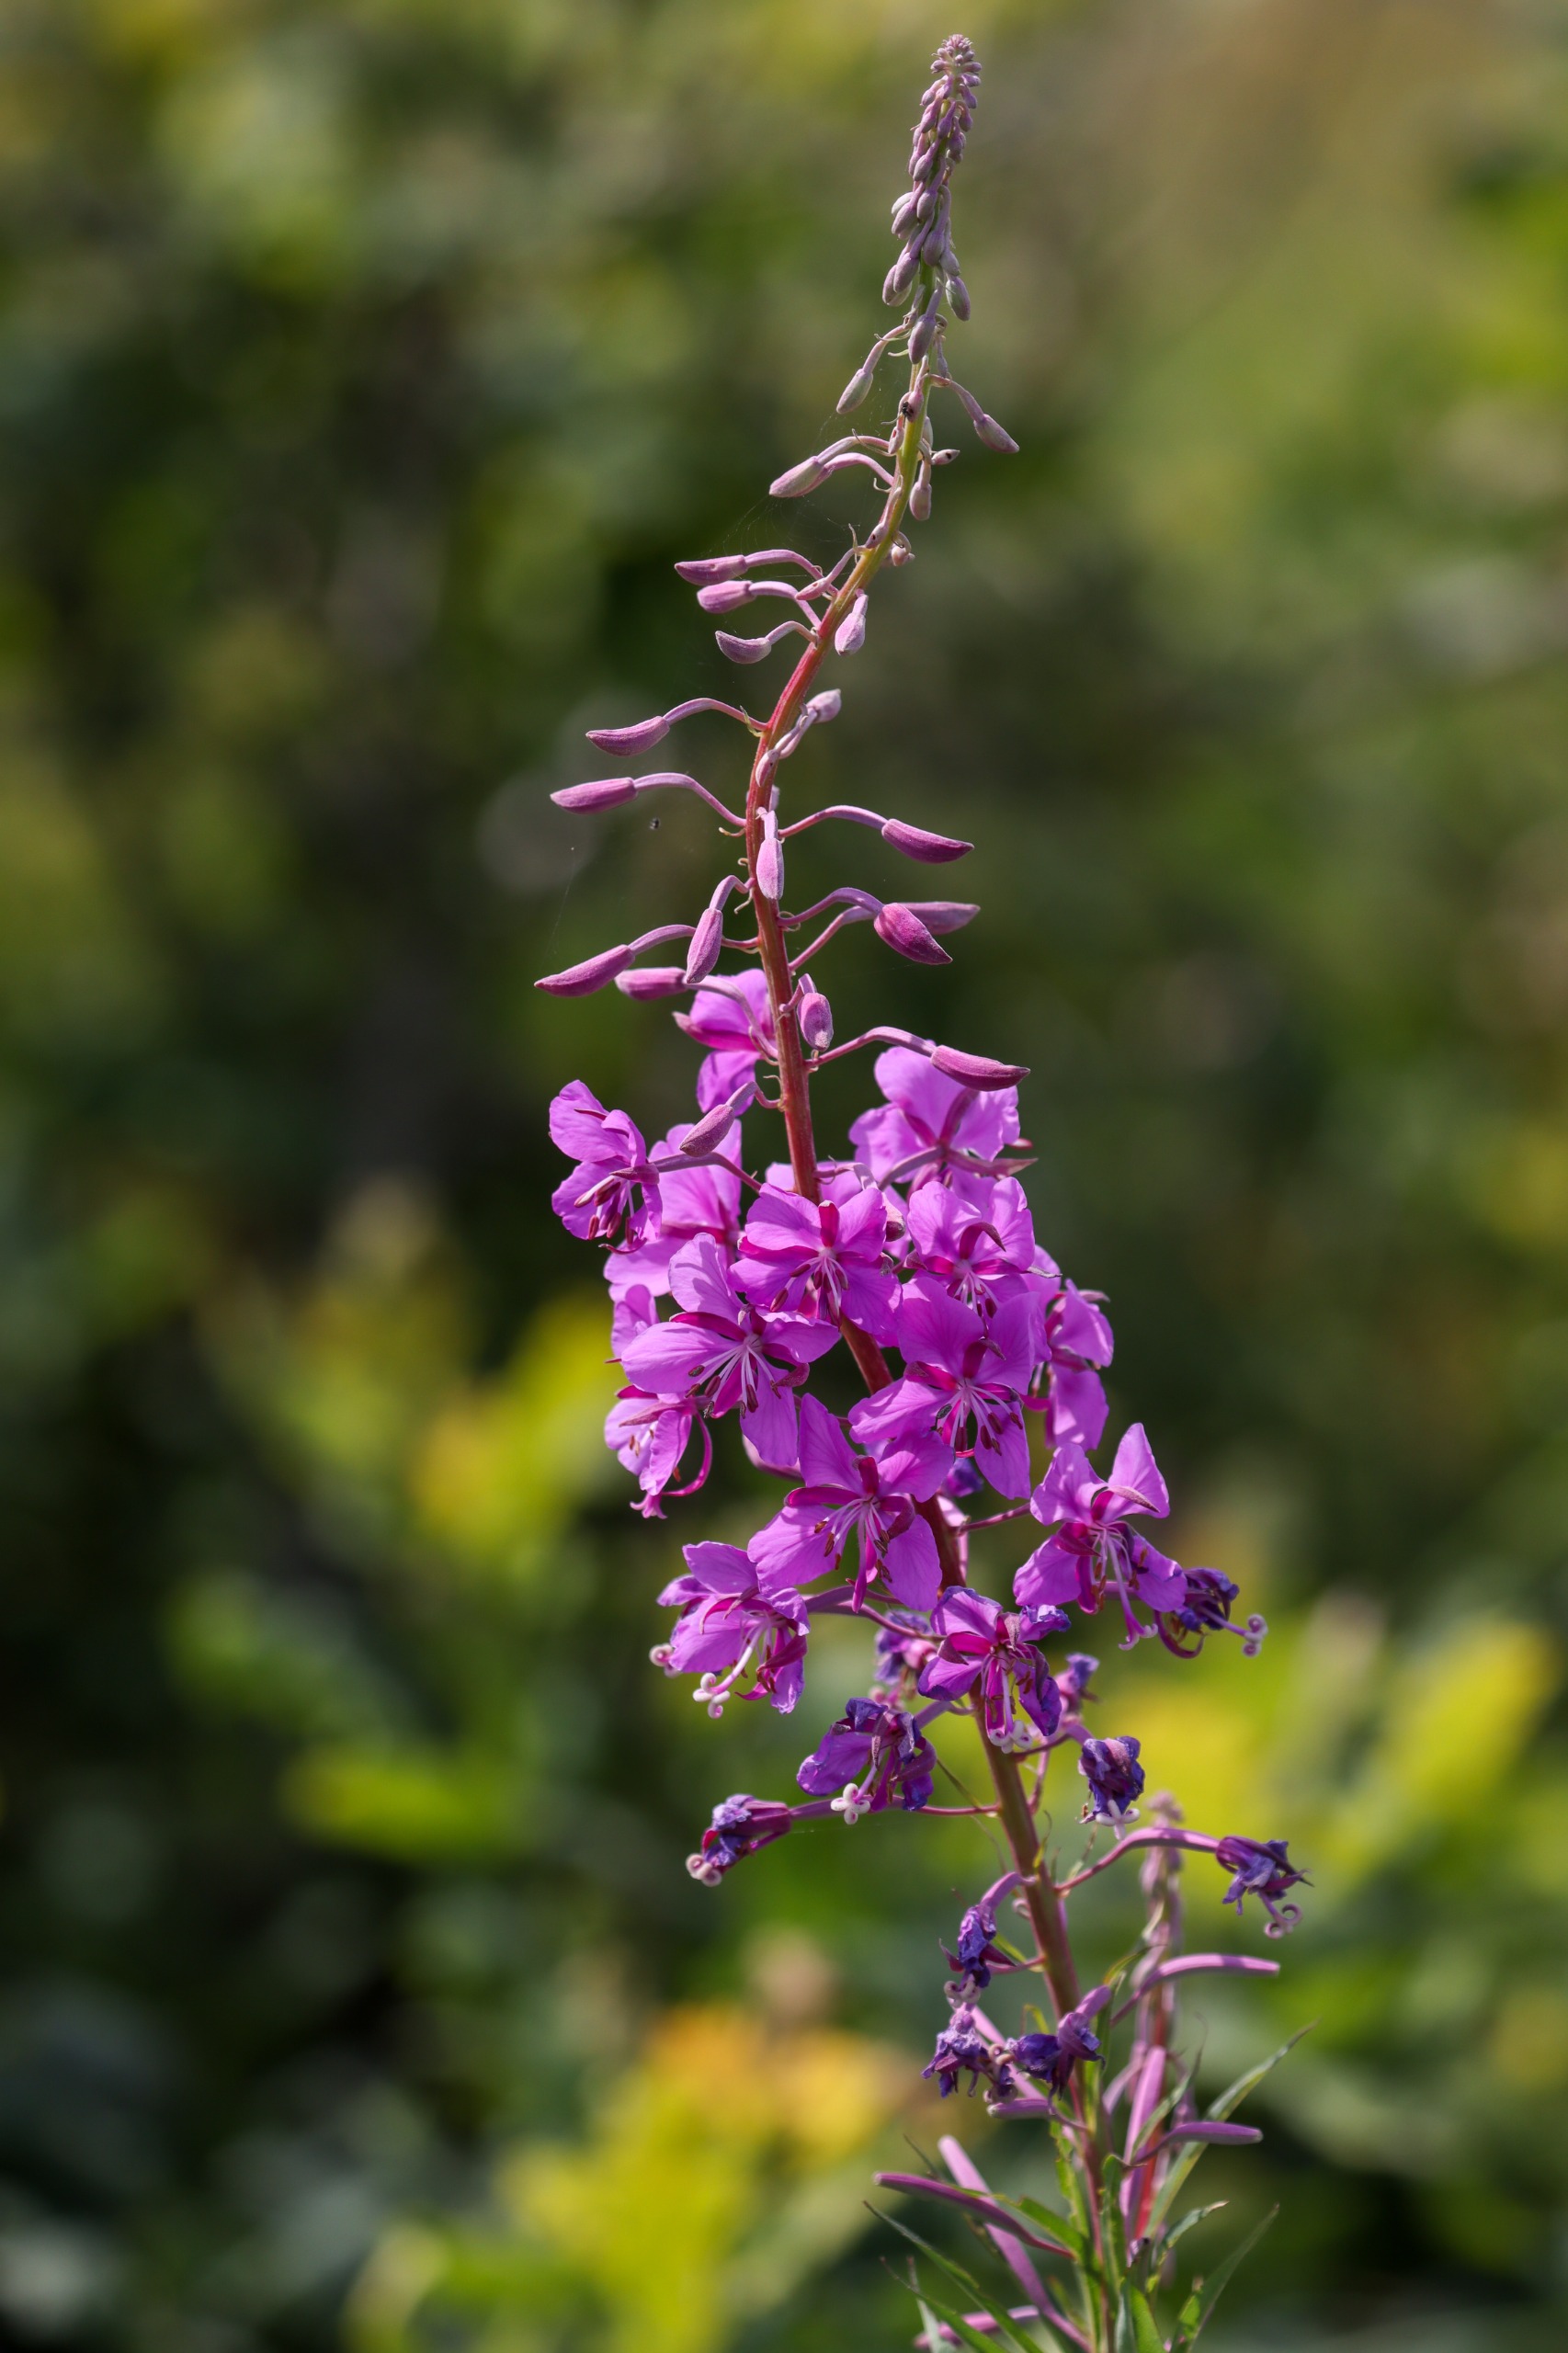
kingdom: Plantae
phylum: Tracheophyta
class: Magnoliopsida
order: Myrtales
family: Onagraceae
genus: Chamaenerion
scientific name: Chamaenerion angustifolium
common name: Gederams
